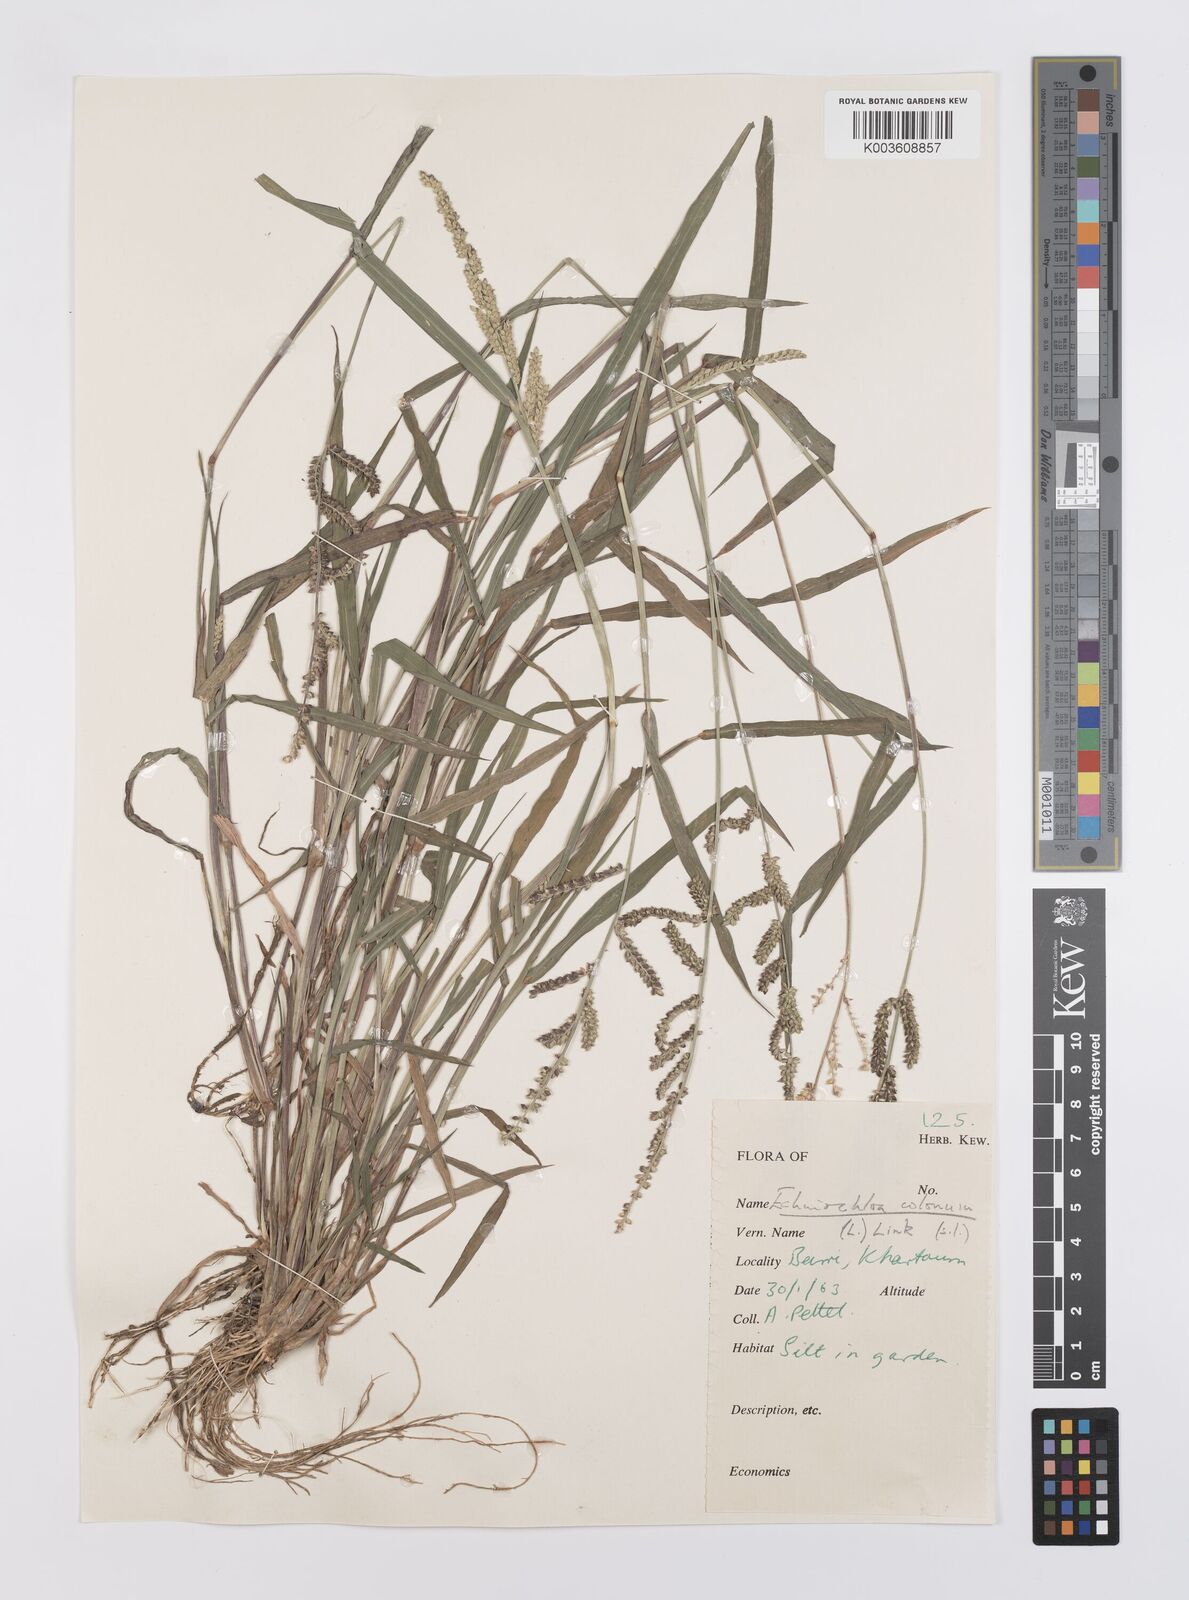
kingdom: Plantae
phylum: Tracheophyta
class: Liliopsida
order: Poales
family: Poaceae
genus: Echinochloa
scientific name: Echinochloa colonum
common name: Jungle rice
